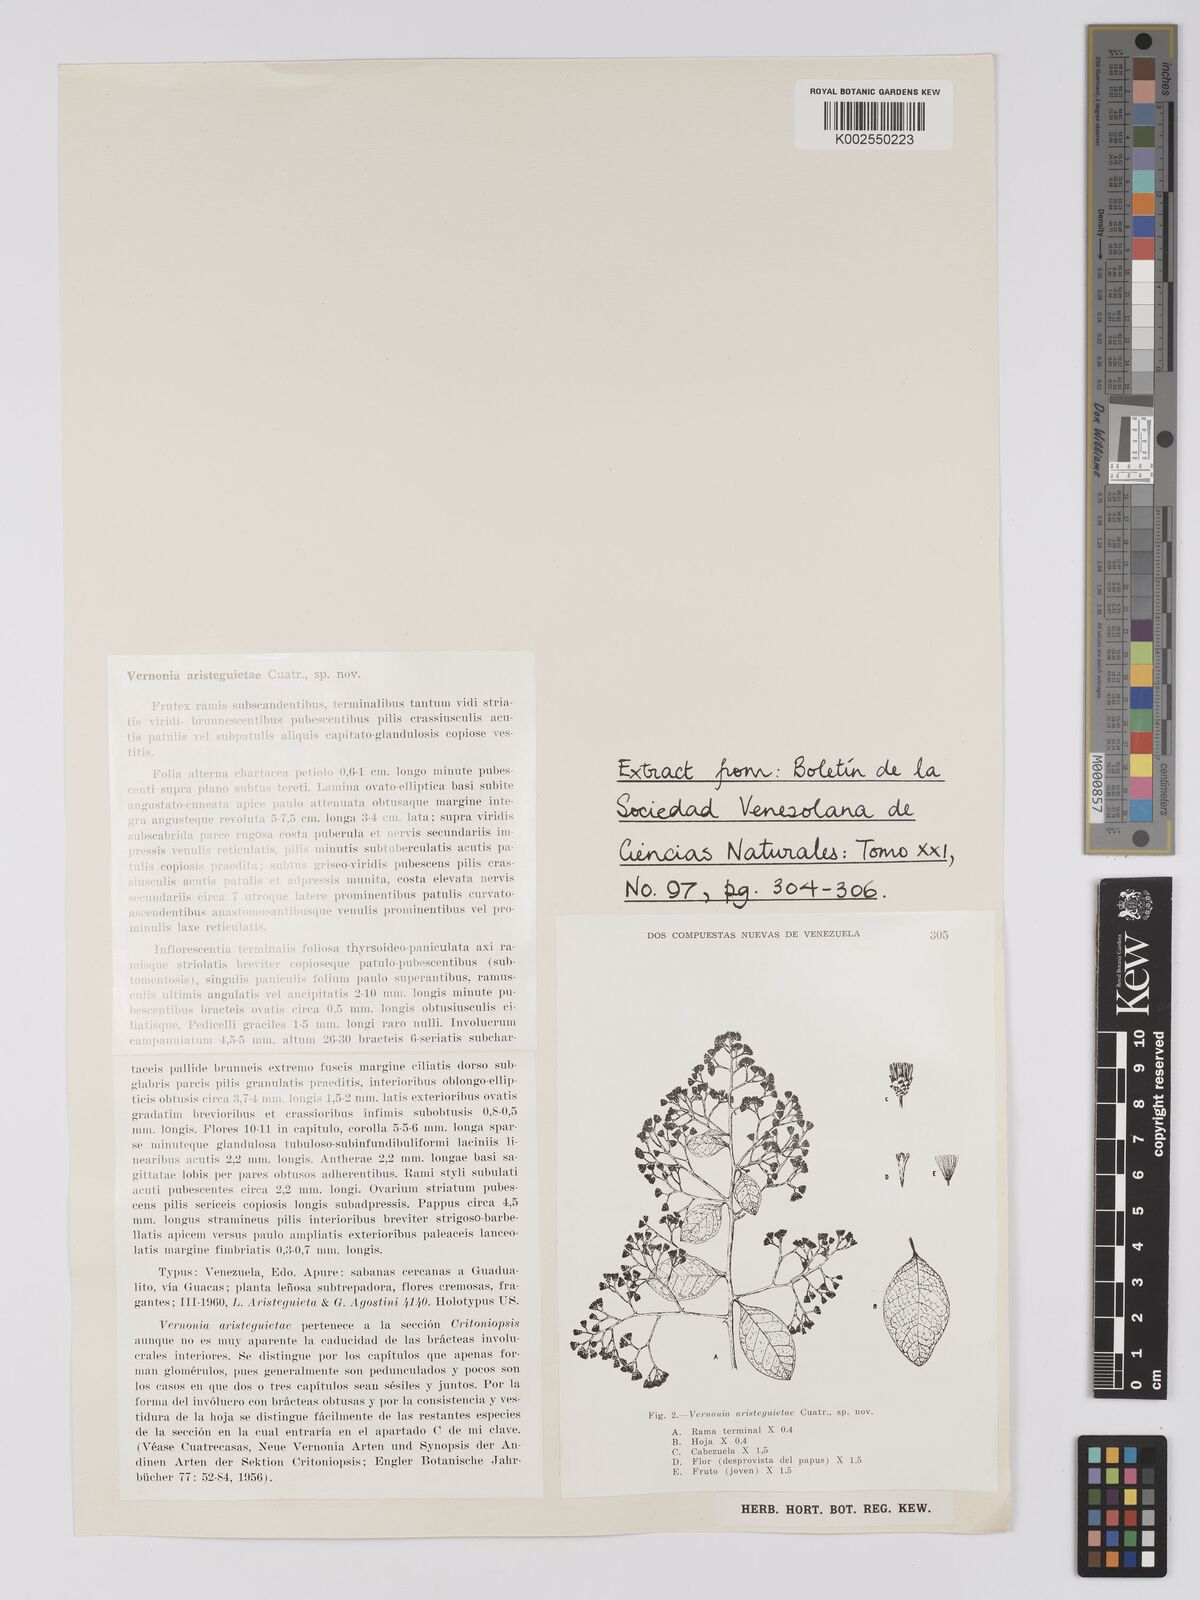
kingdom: Plantae
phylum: Tracheophyta
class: Magnoliopsida
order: Asterales
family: Asteraceae
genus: Critoniopsis
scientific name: Critoniopsis aristeguietae
